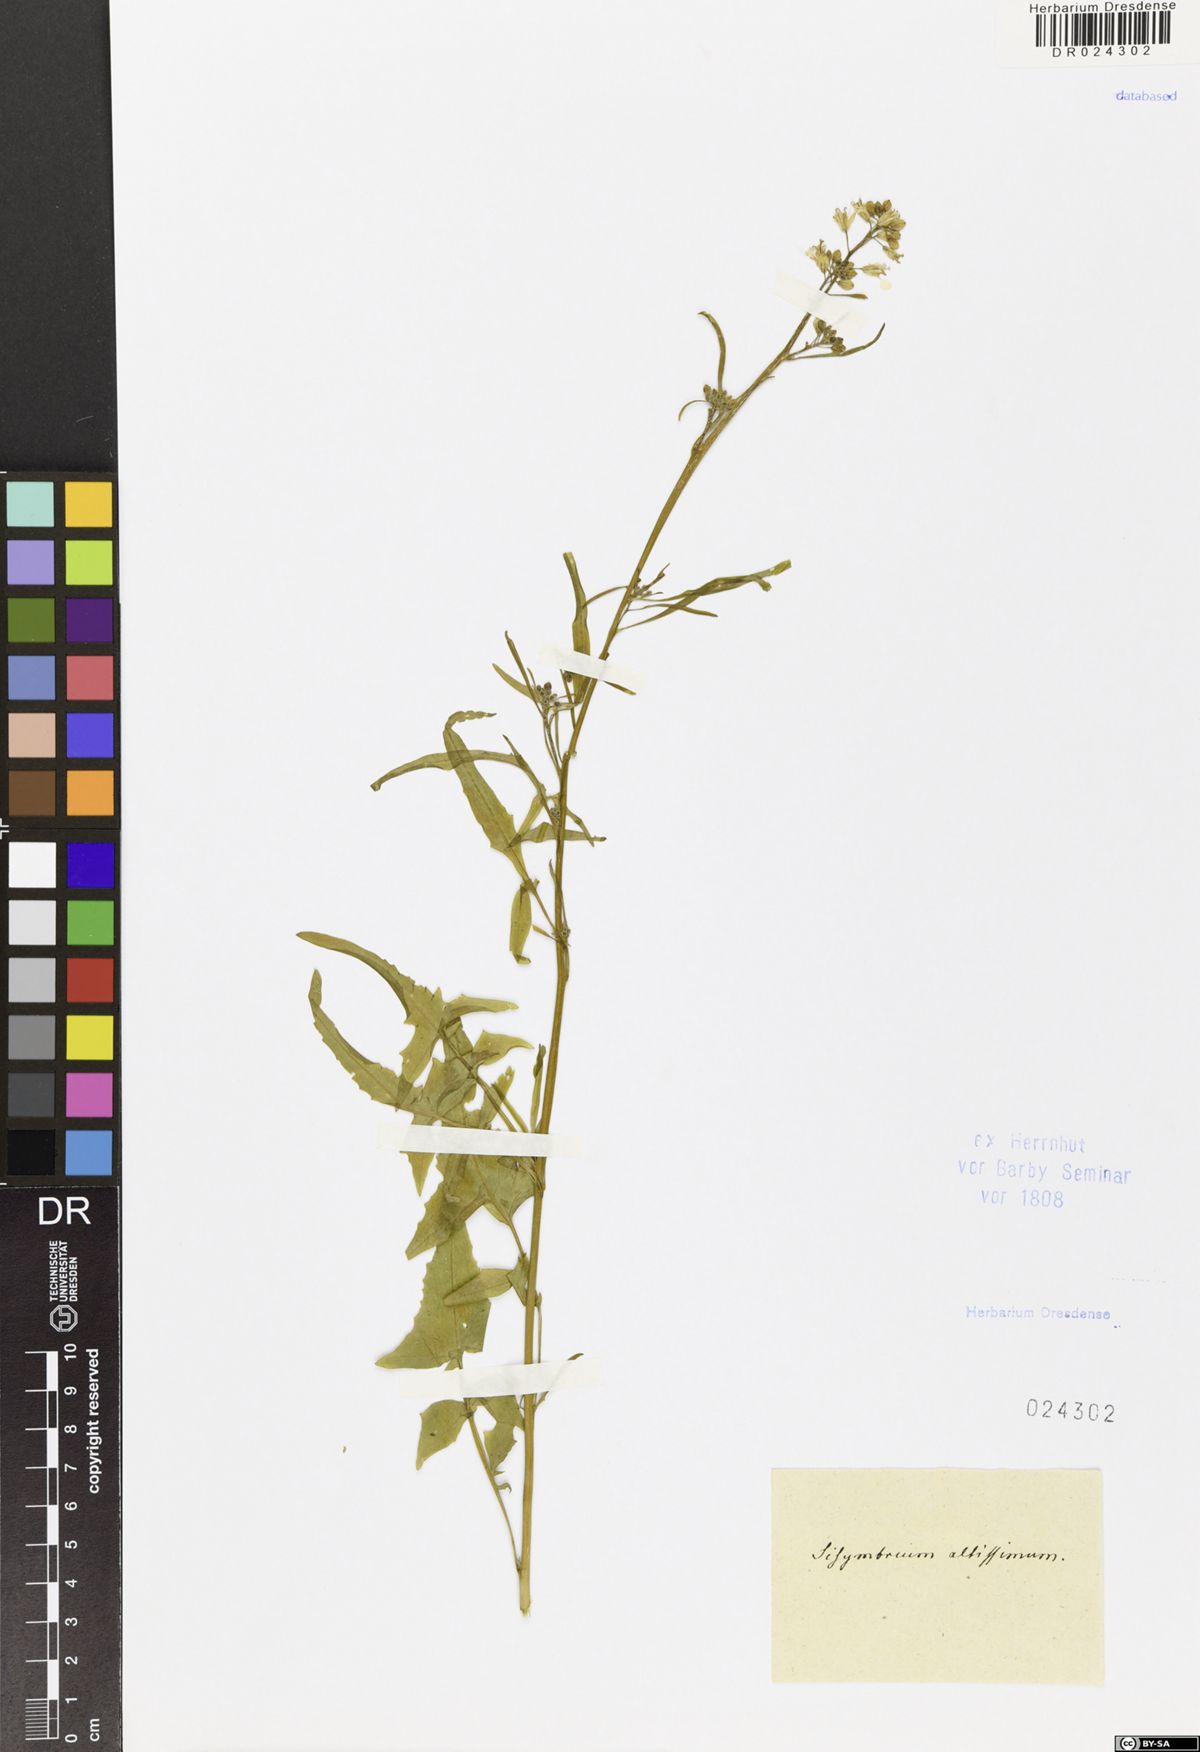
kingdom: Plantae
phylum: Tracheophyta
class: Magnoliopsida
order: Brassicales
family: Brassicaceae
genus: Sisymbrium
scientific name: Sisymbrium altissimum
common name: Tall rocket
